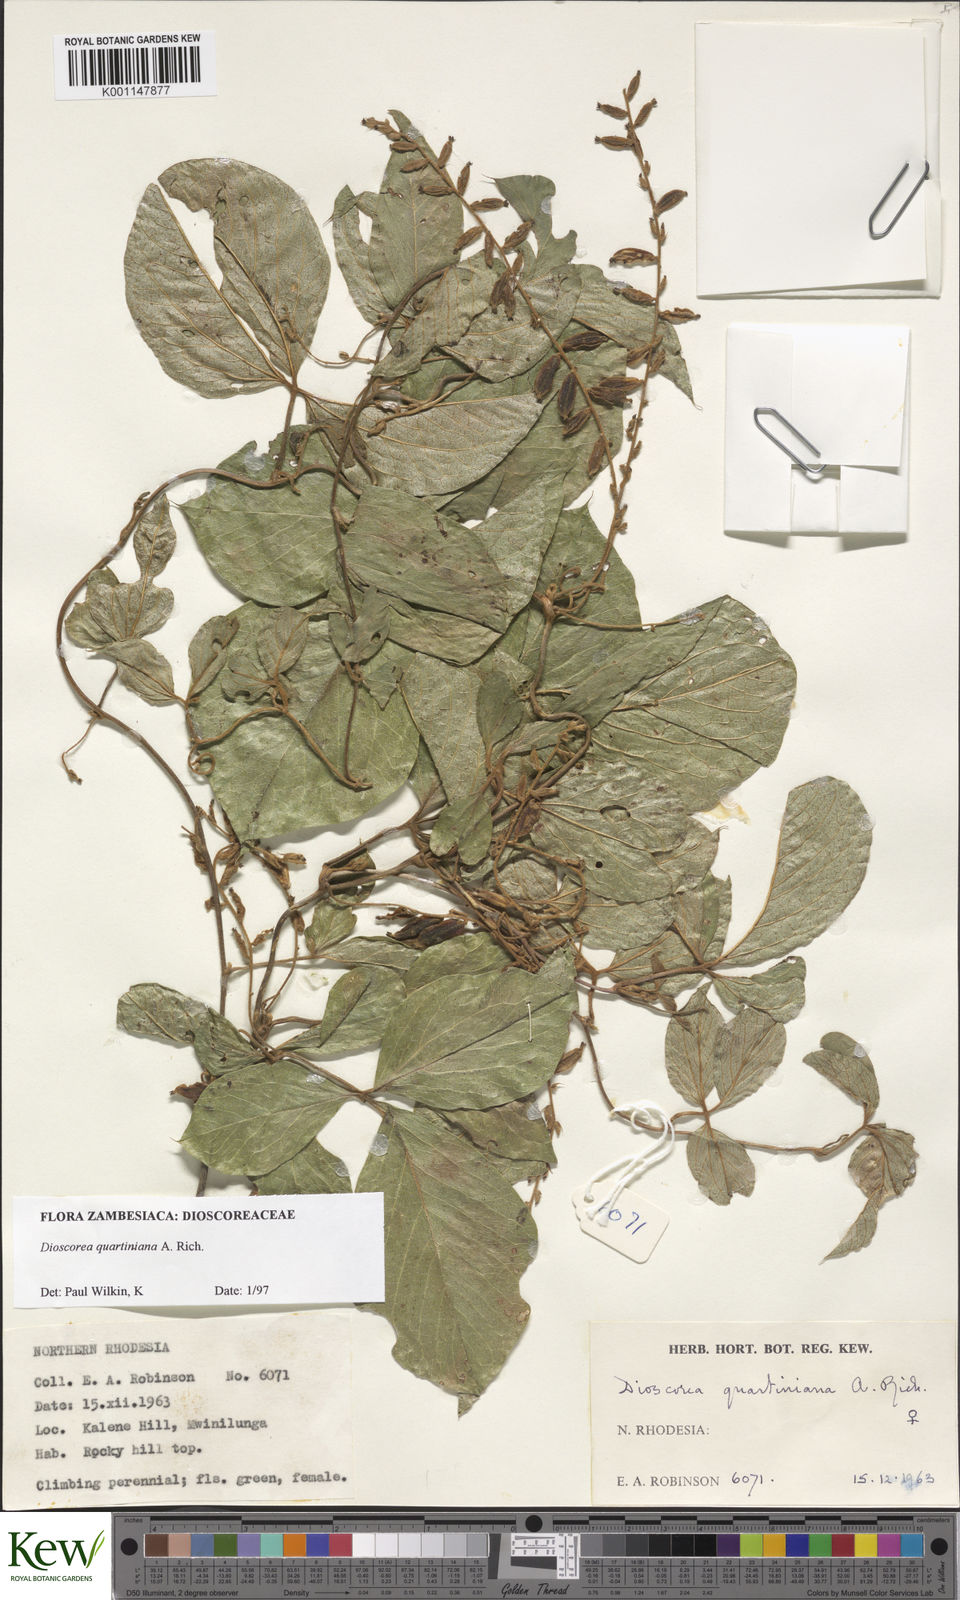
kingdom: Plantae
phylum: Tracheophyta
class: Liliopsida
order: Dioscoreales
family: Dioscoreaceae
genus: Dioscorea
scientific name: Dioscorea quartiniana
